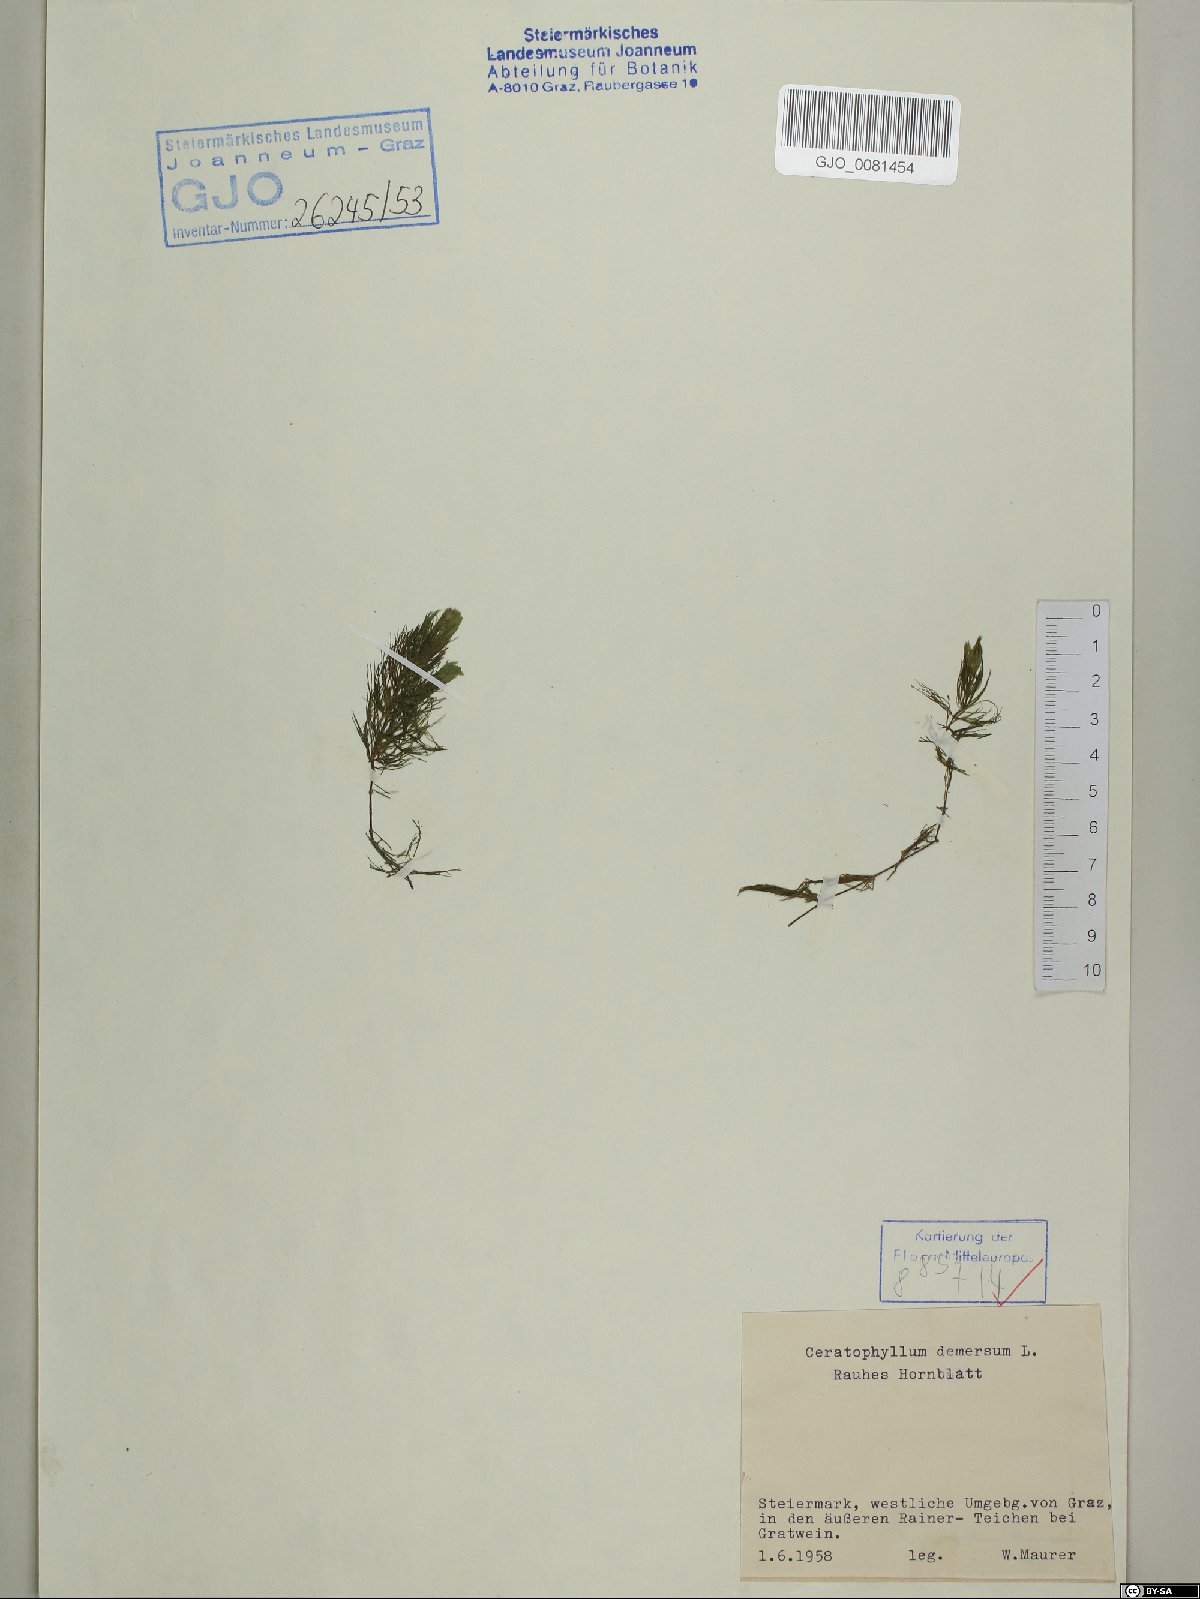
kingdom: Plantae
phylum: Tracheophyta
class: Magnoliopsida
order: Ceratophyllales
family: Ceratophyllaceae
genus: Ceratophyllum
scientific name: Ceratophyllum demersum
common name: Rigid hornwort
